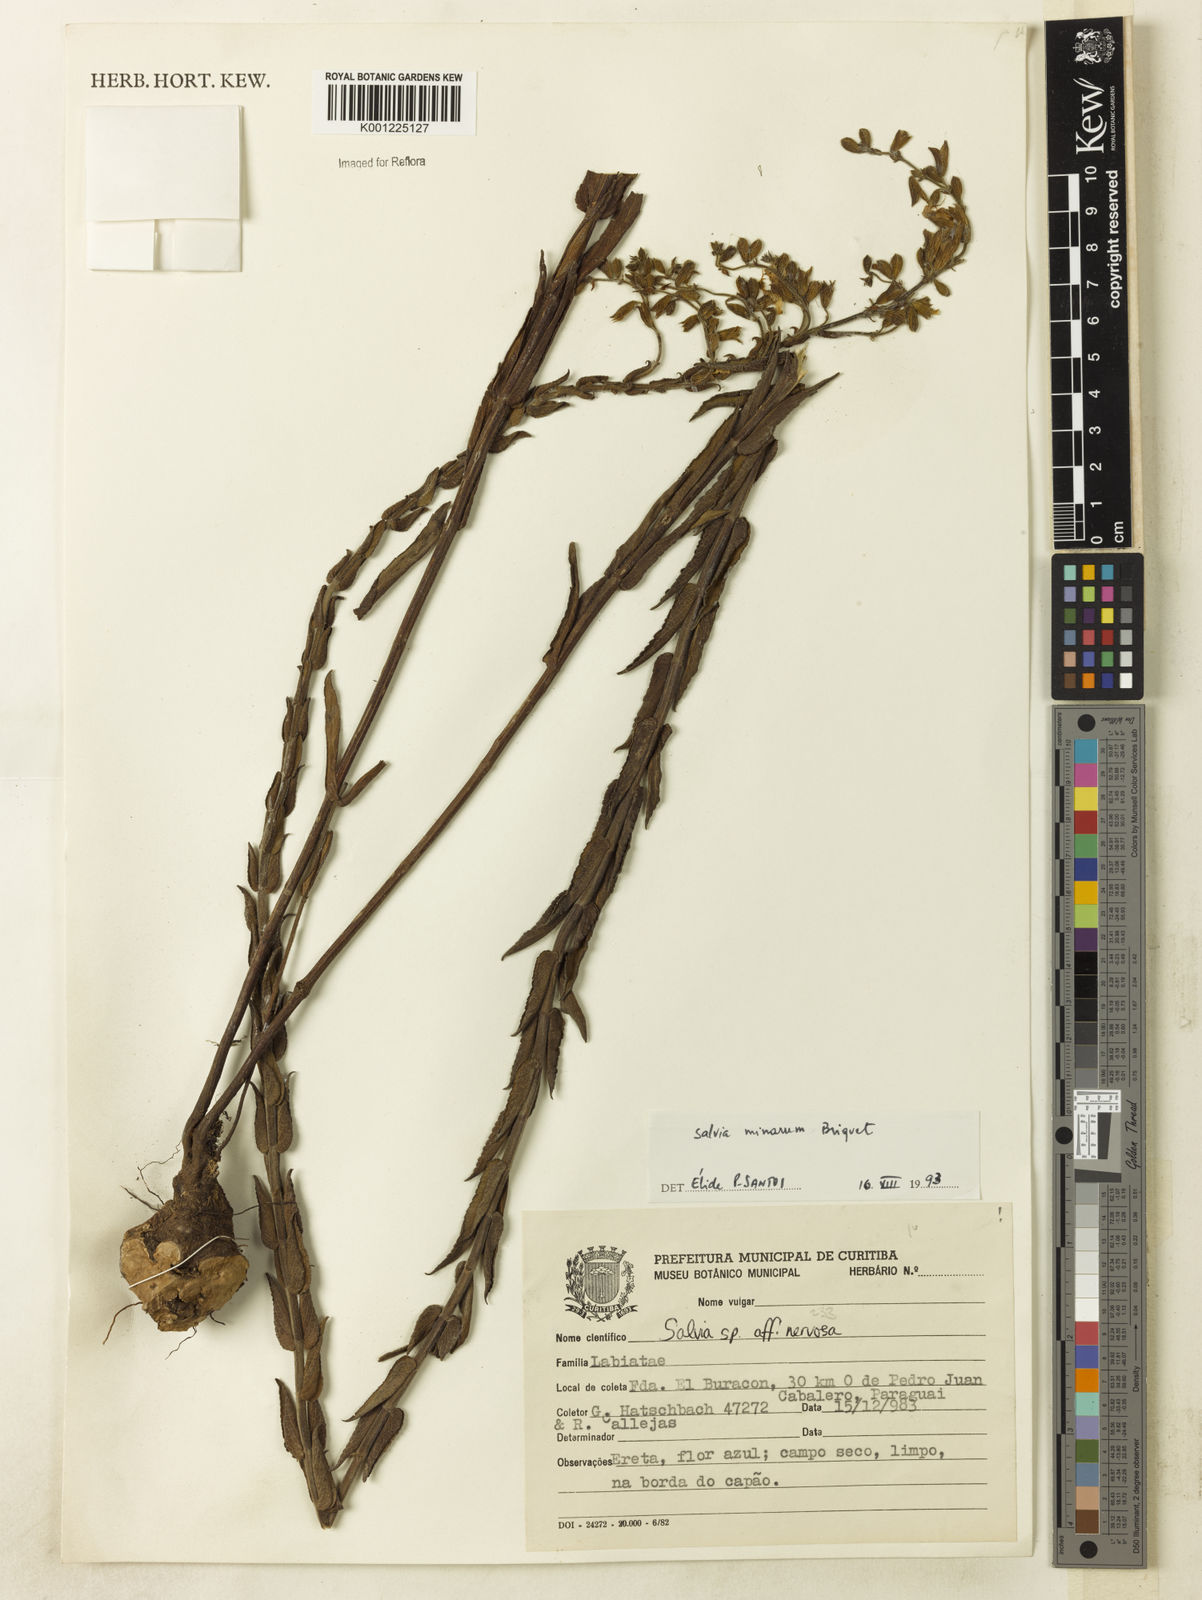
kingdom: Plantae
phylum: Tracheophyta
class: Magnoliopsida
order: Lamiales
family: Lamiaceae
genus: Salvia
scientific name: Salvia minarum
